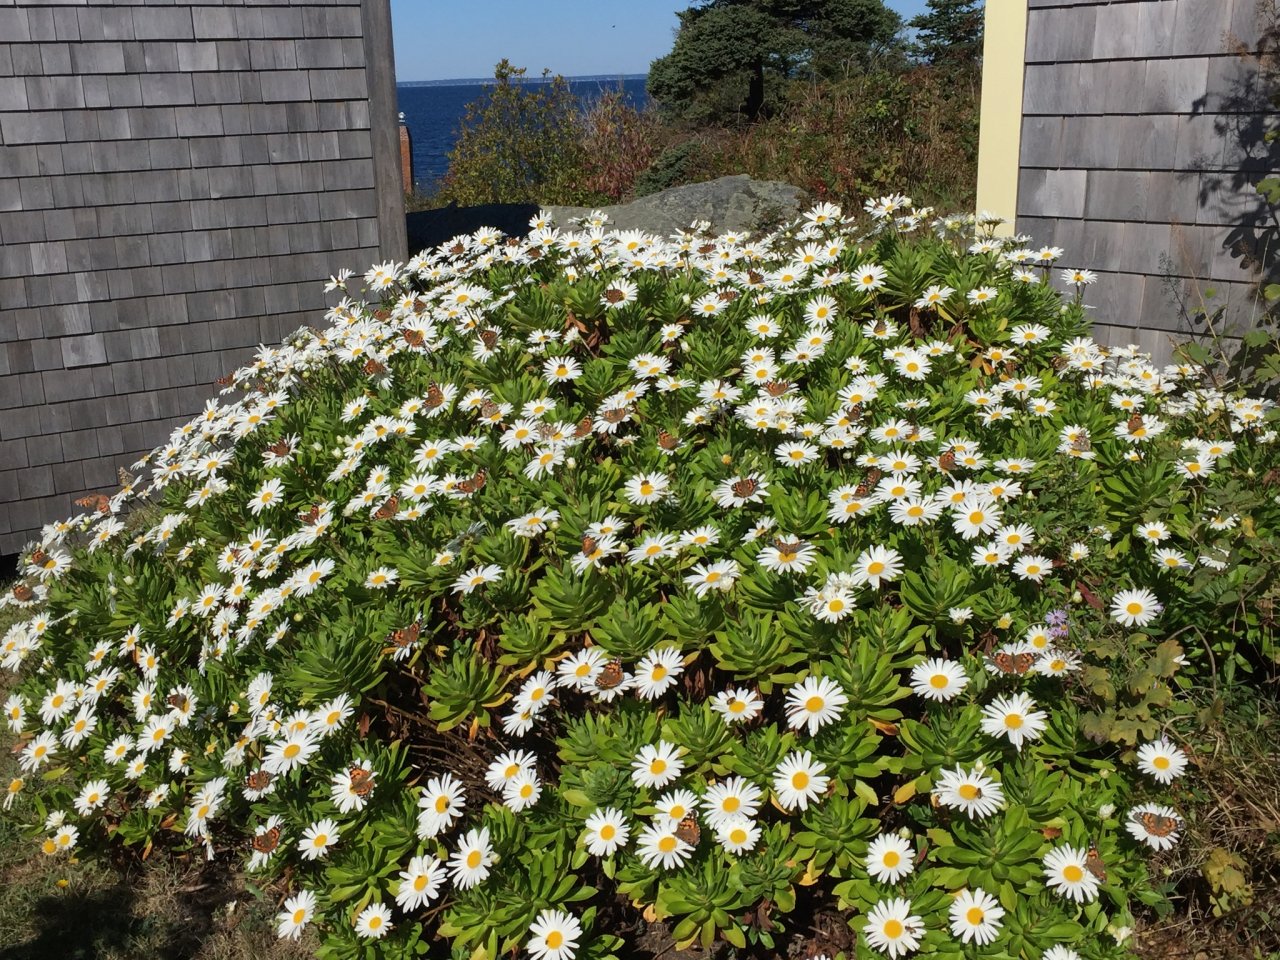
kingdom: Animalia
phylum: Arthropoda
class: Insecta
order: Lepidoptera
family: Nymphalidae
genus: Vanessa
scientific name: Vanessa cardui
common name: Painted Lady
